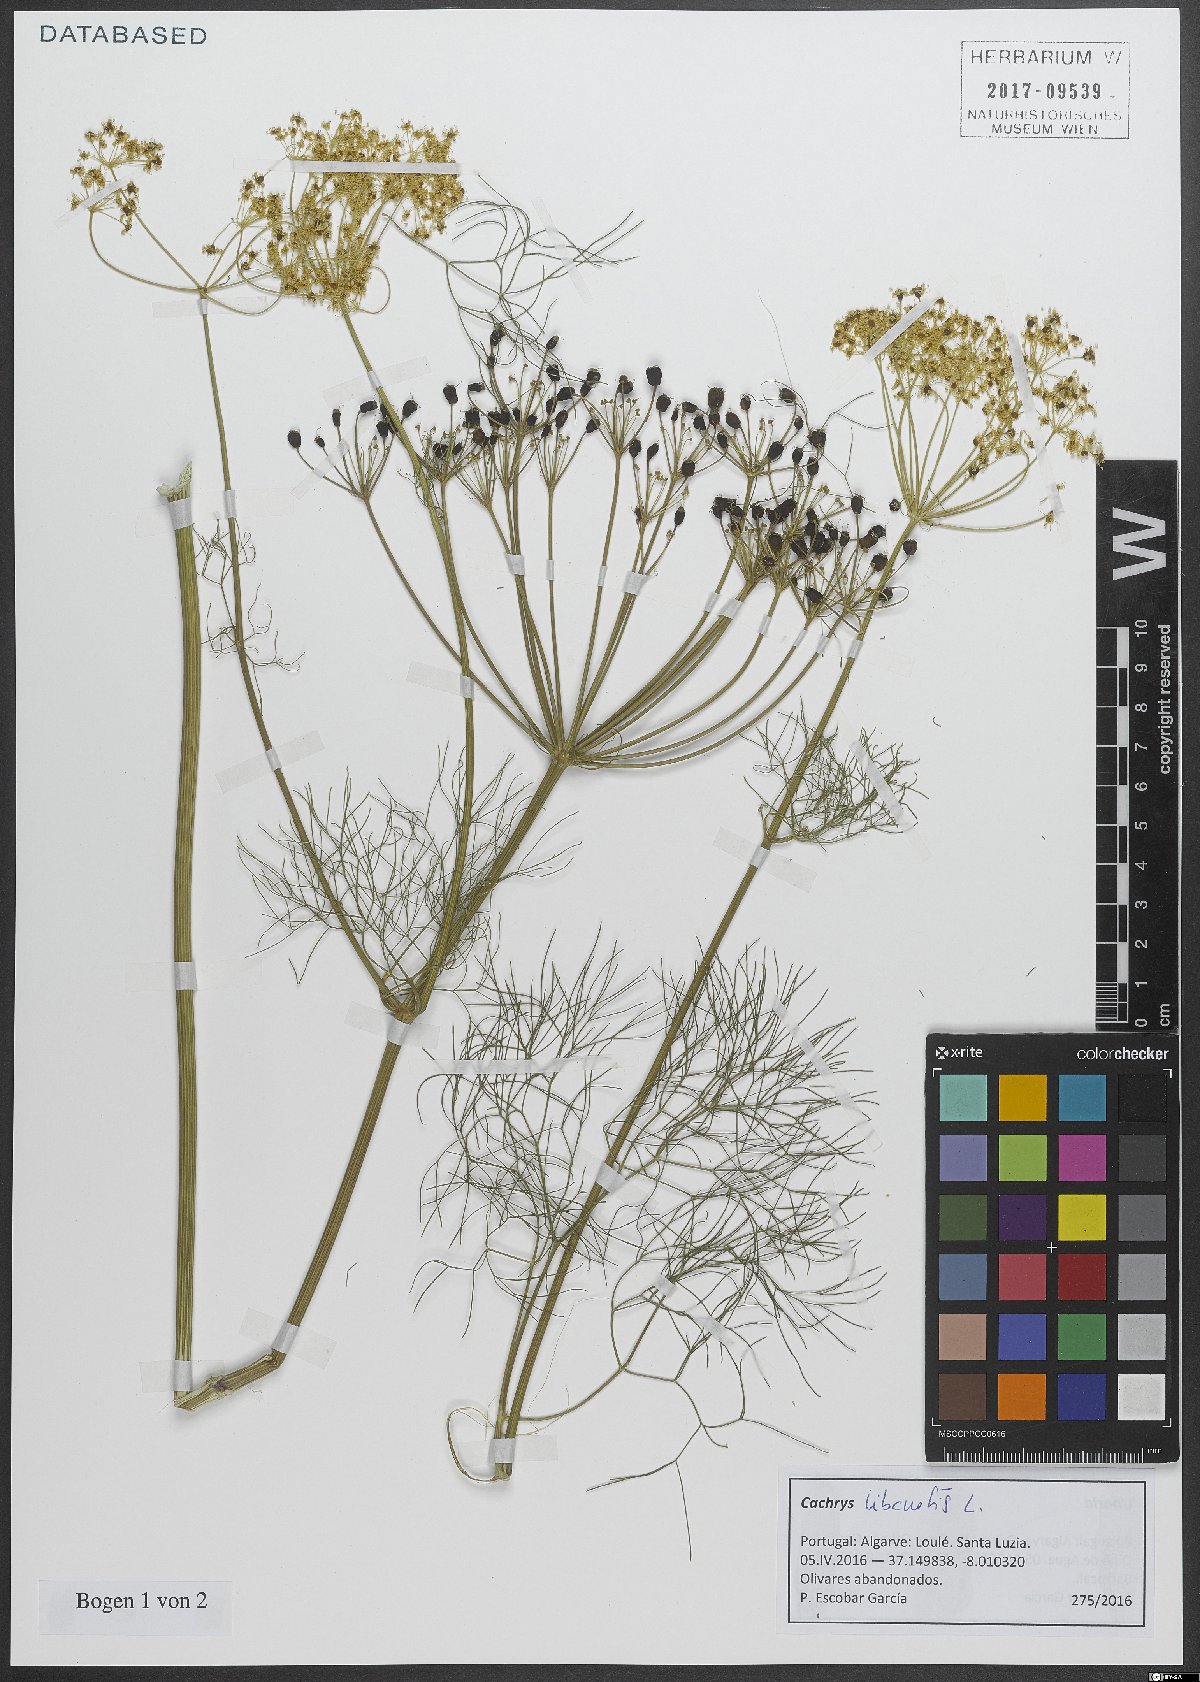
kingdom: Plantae
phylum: Tracheophyta
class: Magnoliopsida
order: Apiales
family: Apiaceae
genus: Cachrys
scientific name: Cachrys libanotis
